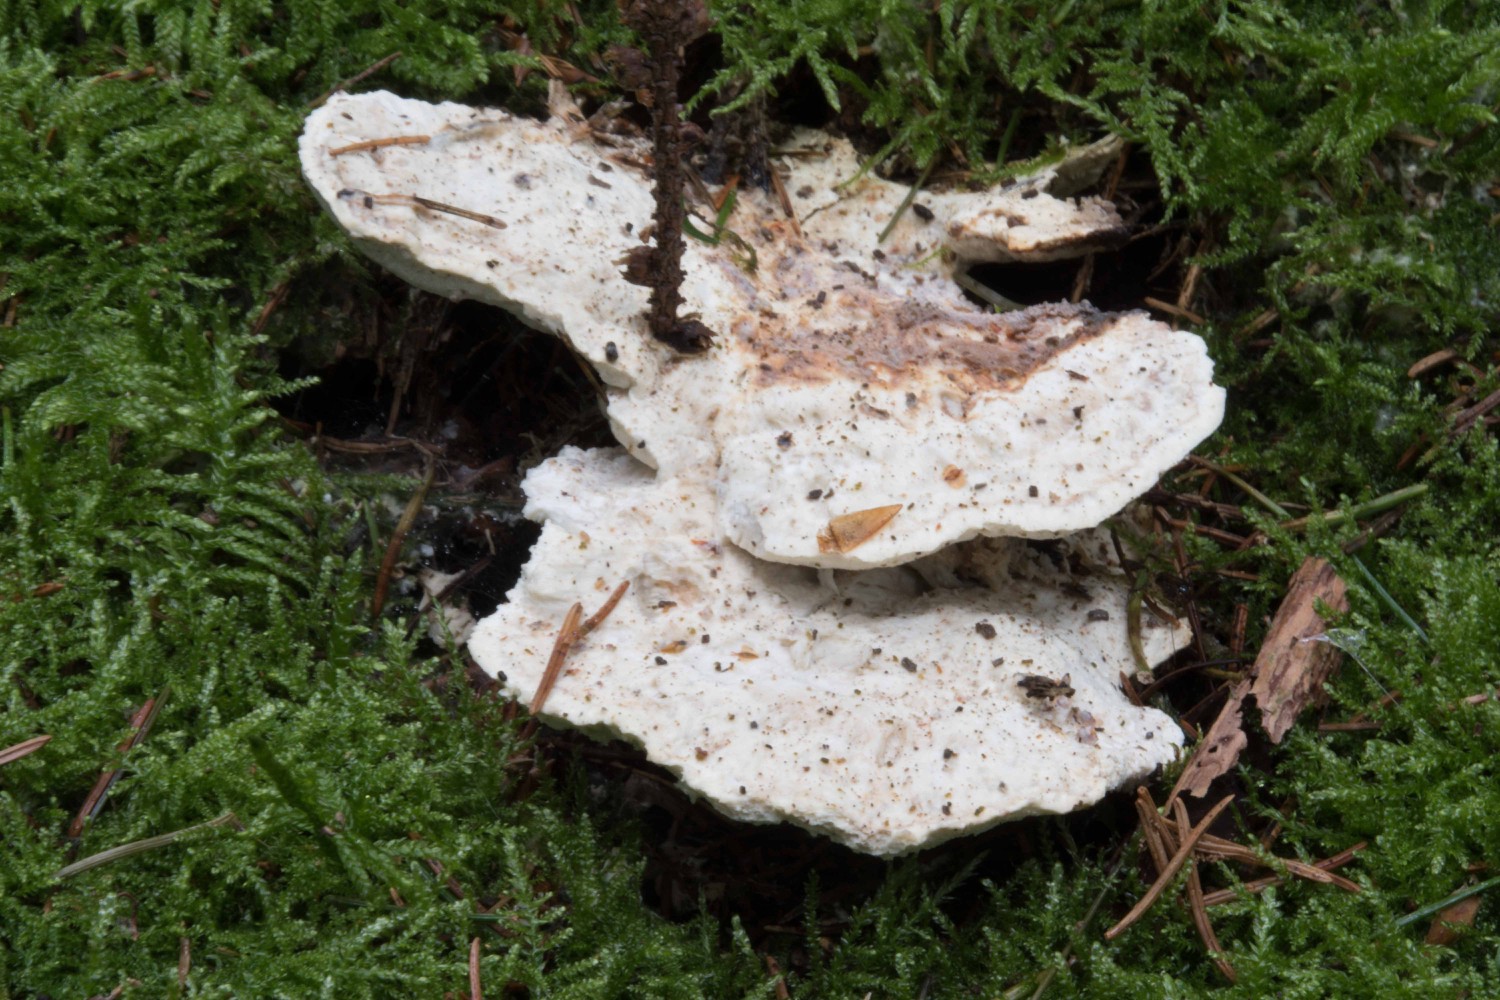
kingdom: Fungi
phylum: Basidiomycota
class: Agaricomycetes
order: Polyporales
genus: Calcipostia
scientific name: Calcipostia guttulata
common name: dråbe-kødporesvamp
